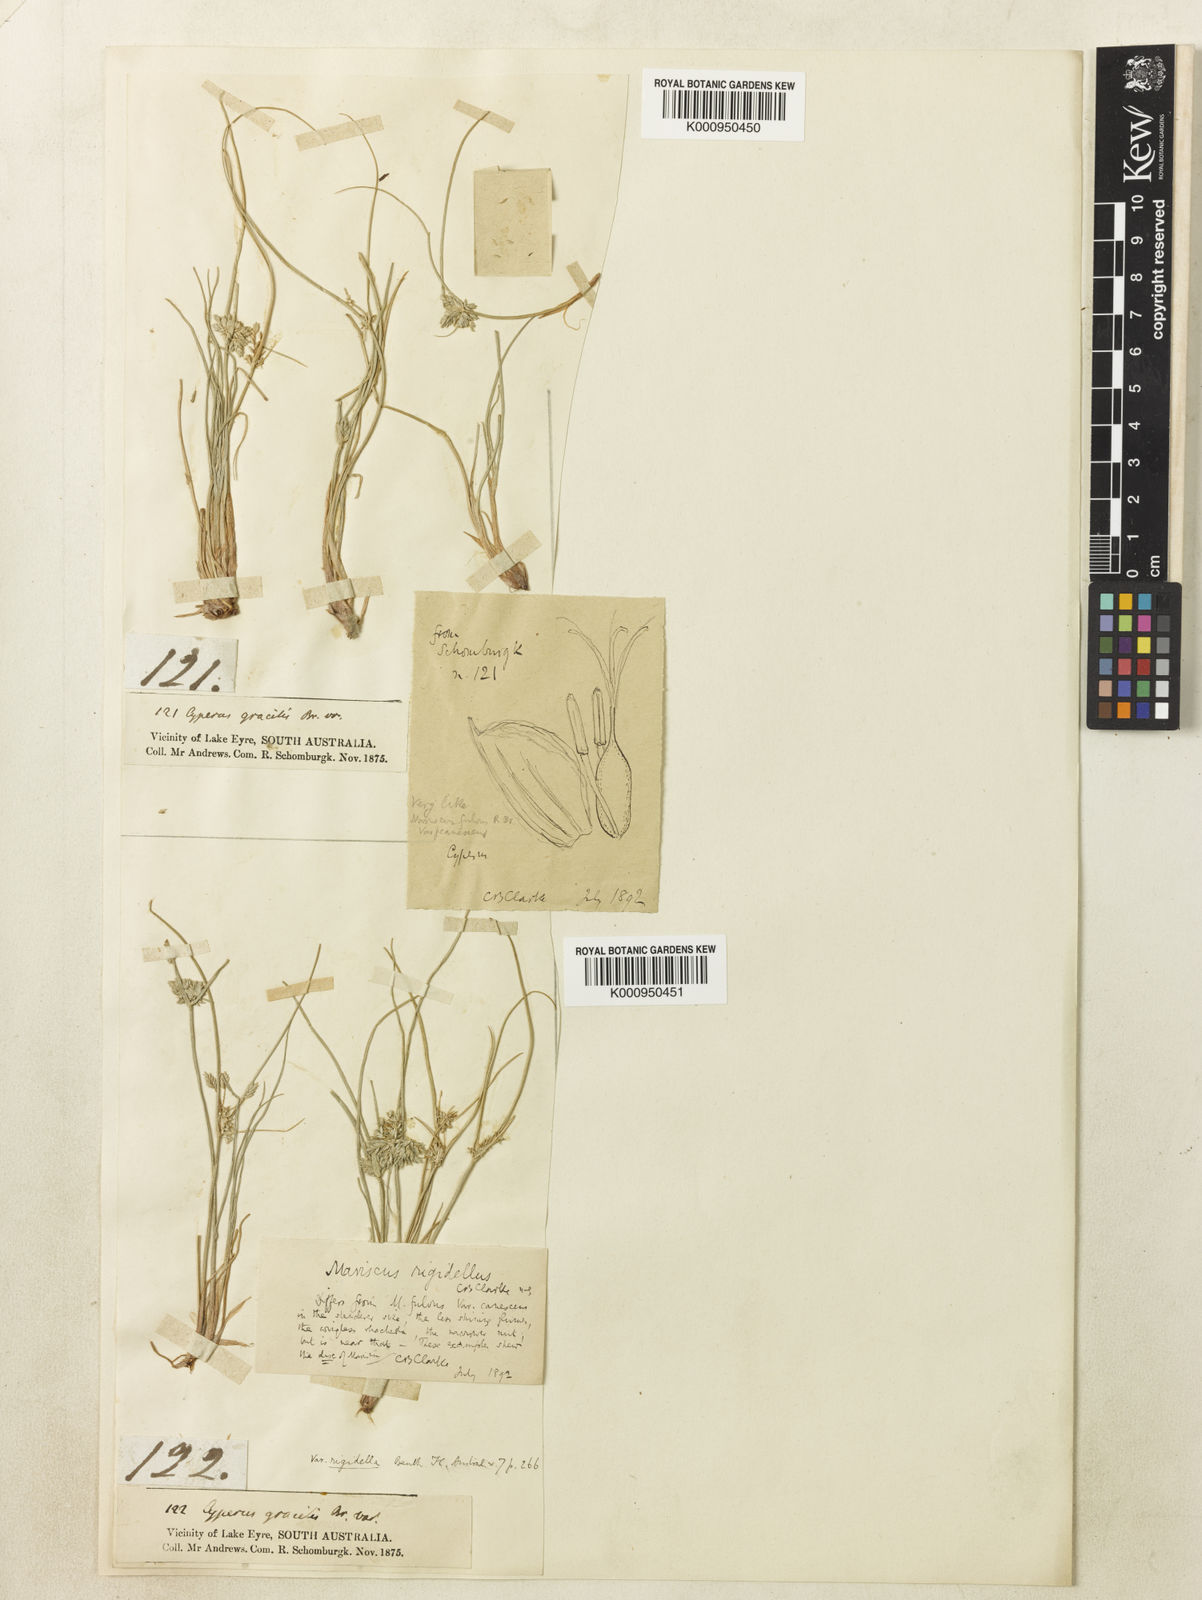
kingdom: Plantae
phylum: Tracheophyta
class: Liliopsida
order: Poales
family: Cyperaceae
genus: Cyperus
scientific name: Cyperus rigidellus
